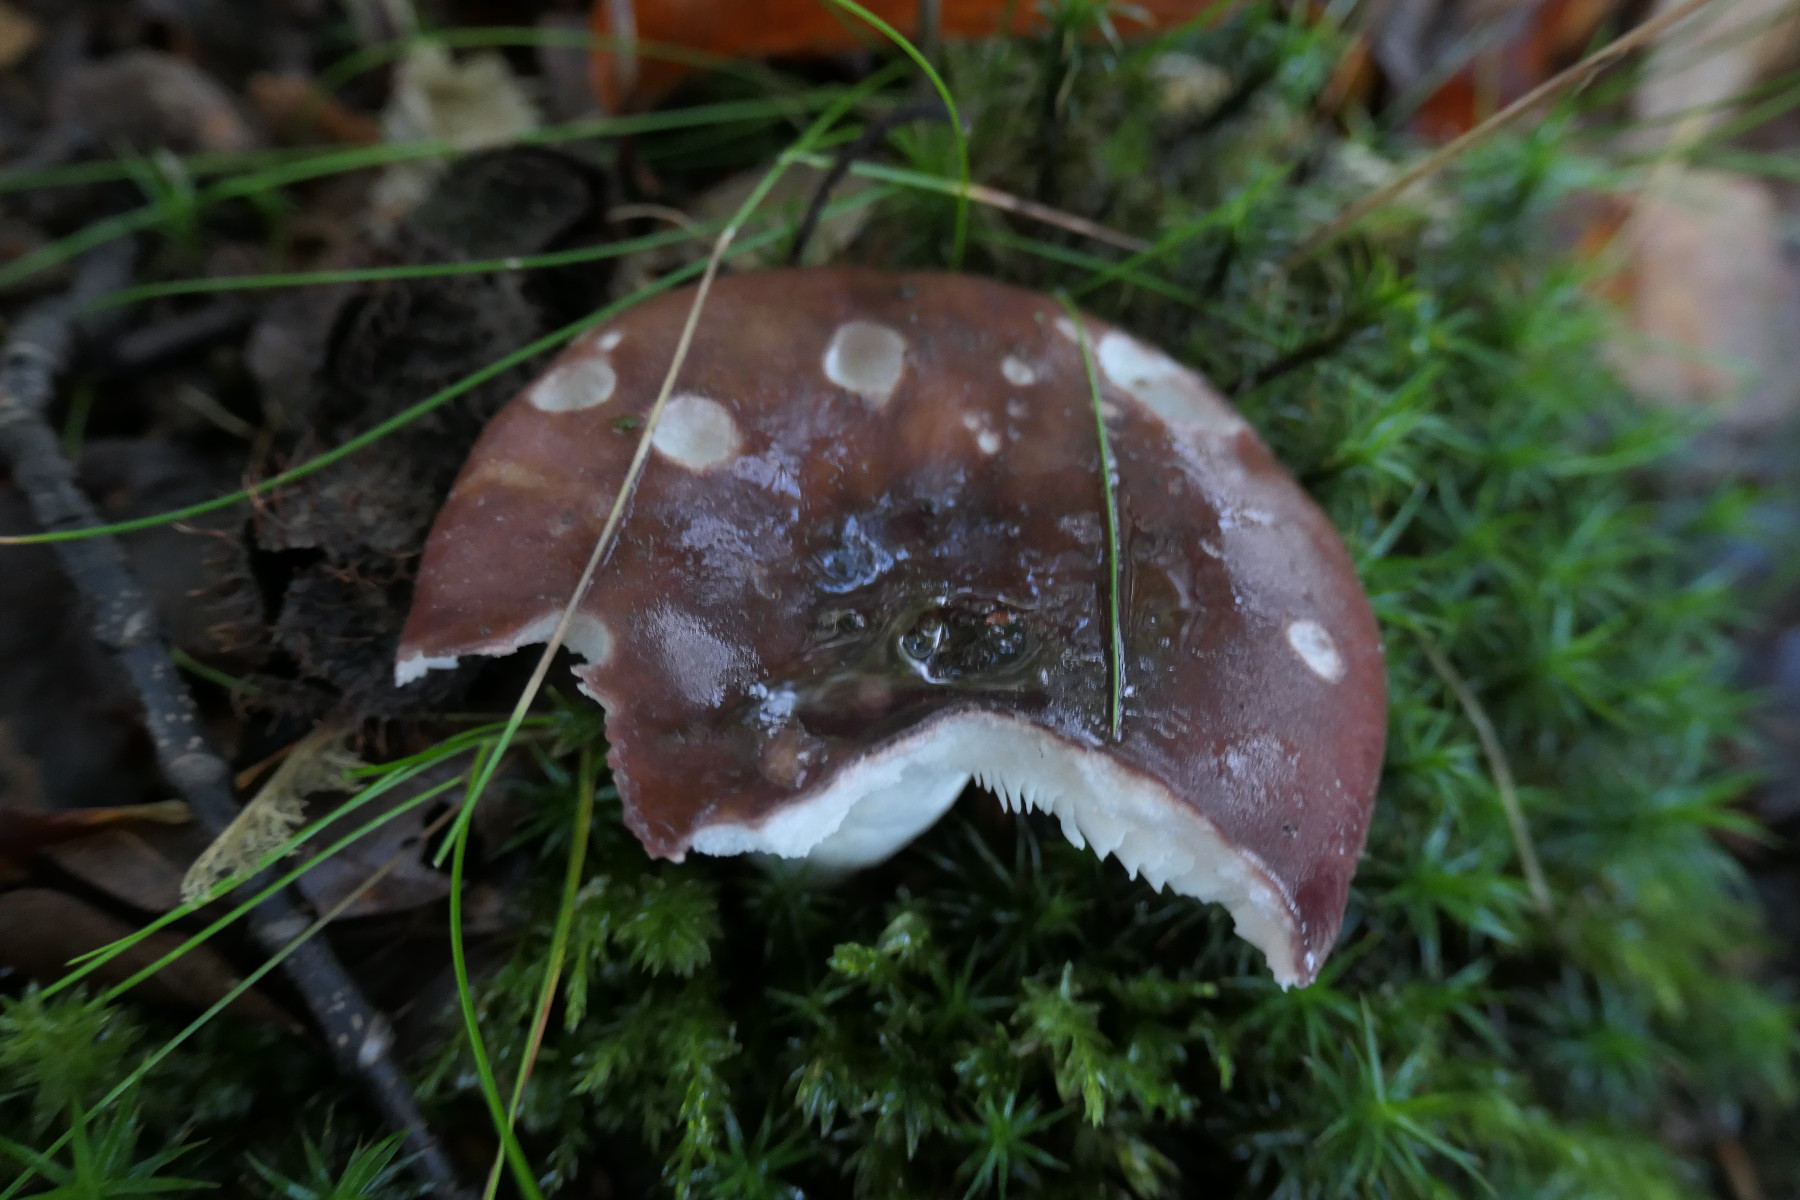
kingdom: Fungi
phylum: Basidiomycota
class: Agaricomycetes
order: Russulales
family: Russulaceae
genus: Russula
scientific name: Russula vesca
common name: spiselig skørhat
